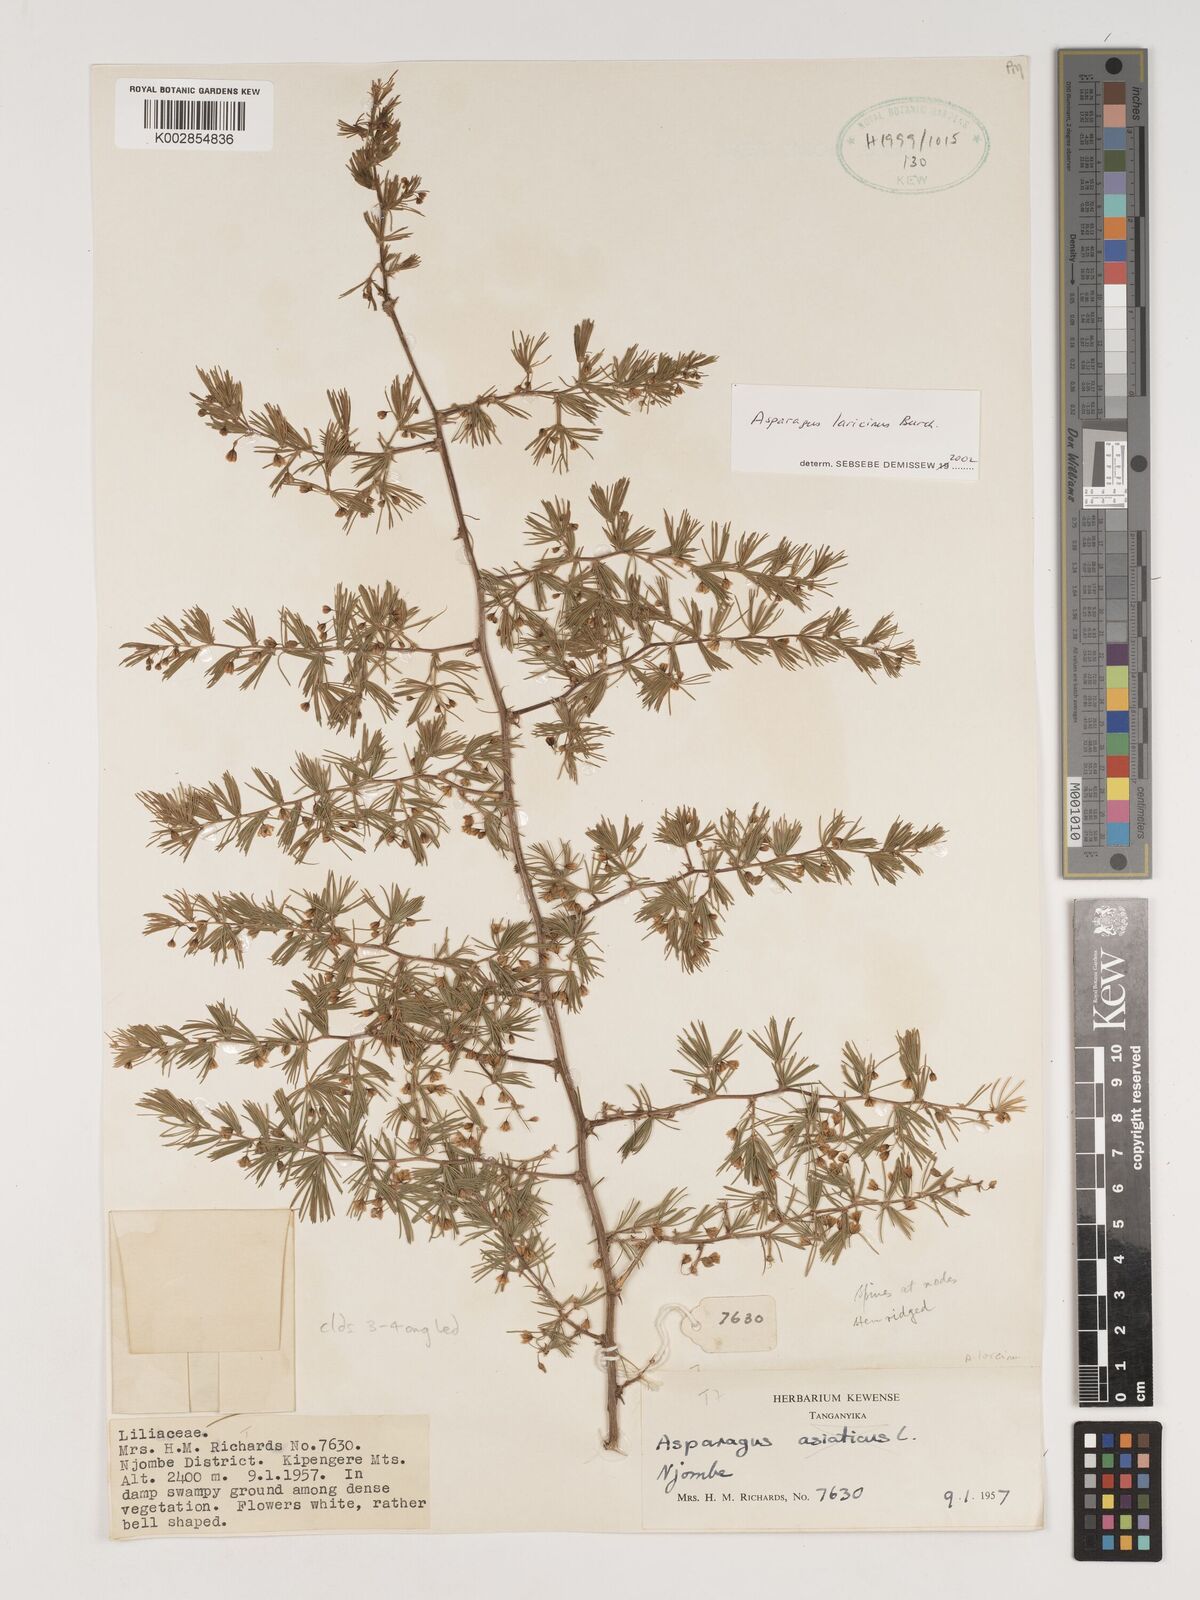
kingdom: Plantae
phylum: Tracheophyta
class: Liliopsida
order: Asparagales
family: Asparagaceae
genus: Asparagus
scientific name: Asparagus laricinus
